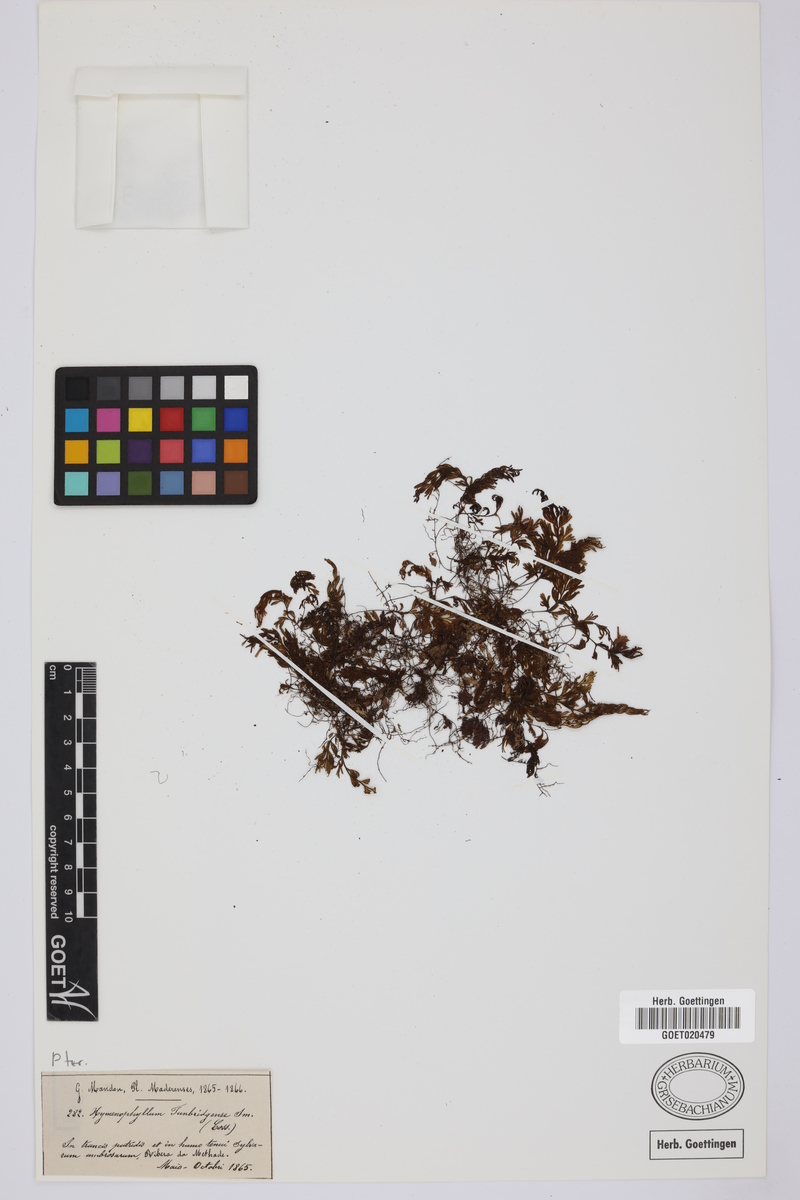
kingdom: Plantae
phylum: Tracheophyta
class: Polypodiopsida
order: Hymenophyllales
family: Hymenophyllaceae
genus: Hymenophyllum
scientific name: Hymenophyllum tunbrigense
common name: Tunbridge filmy fern
